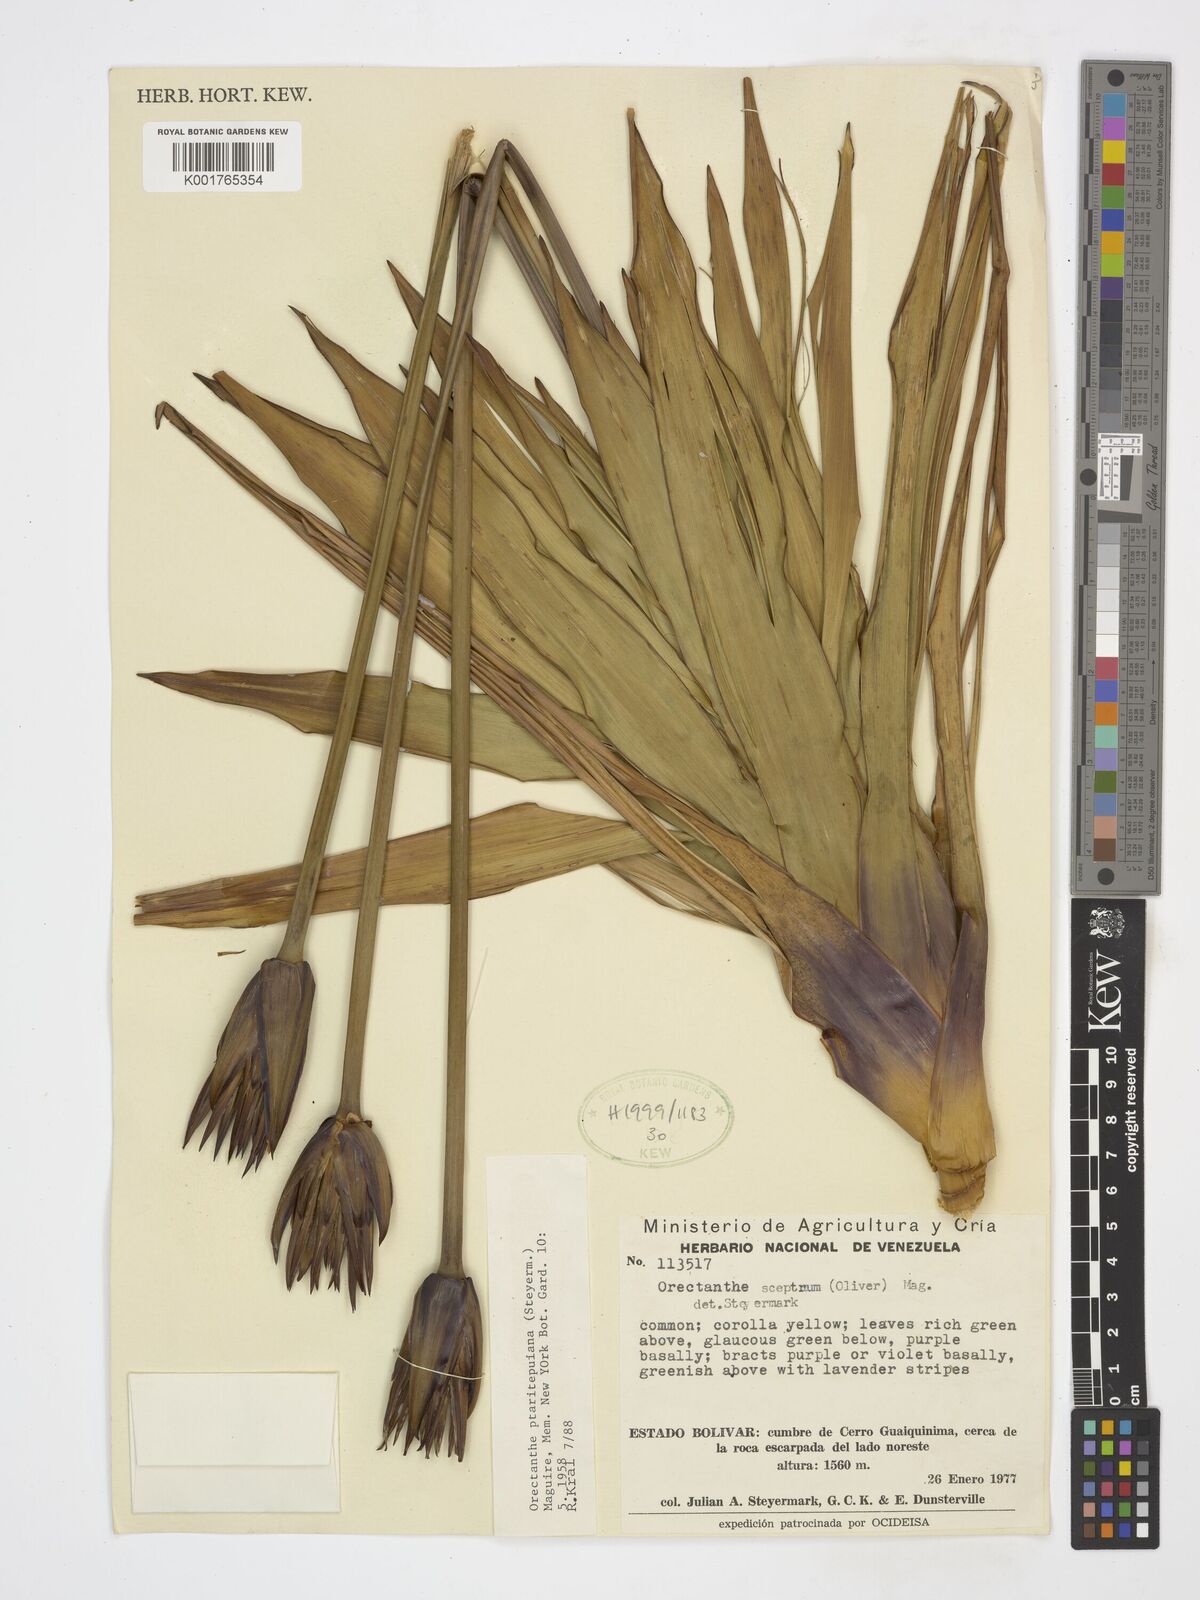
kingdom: Plantae
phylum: Tracheophyta
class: Liliopsida
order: Poales
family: Xyridaceae
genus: Orectanthe
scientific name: Orectanthe ptaritepuiana
